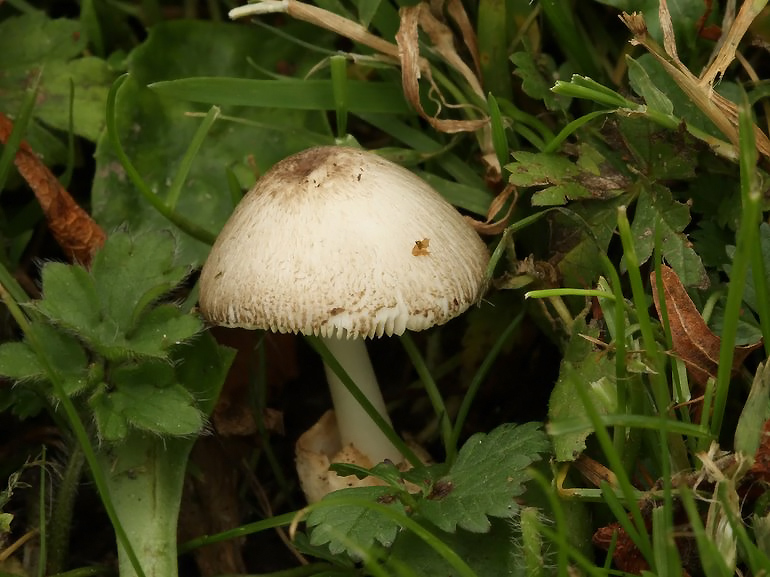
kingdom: Fungi
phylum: Basidiomycota
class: Agaricomycetes
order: Agaricales
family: Pluteaceae
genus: Volvariella
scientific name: Volvariella pusilla
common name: liden posesvamp
